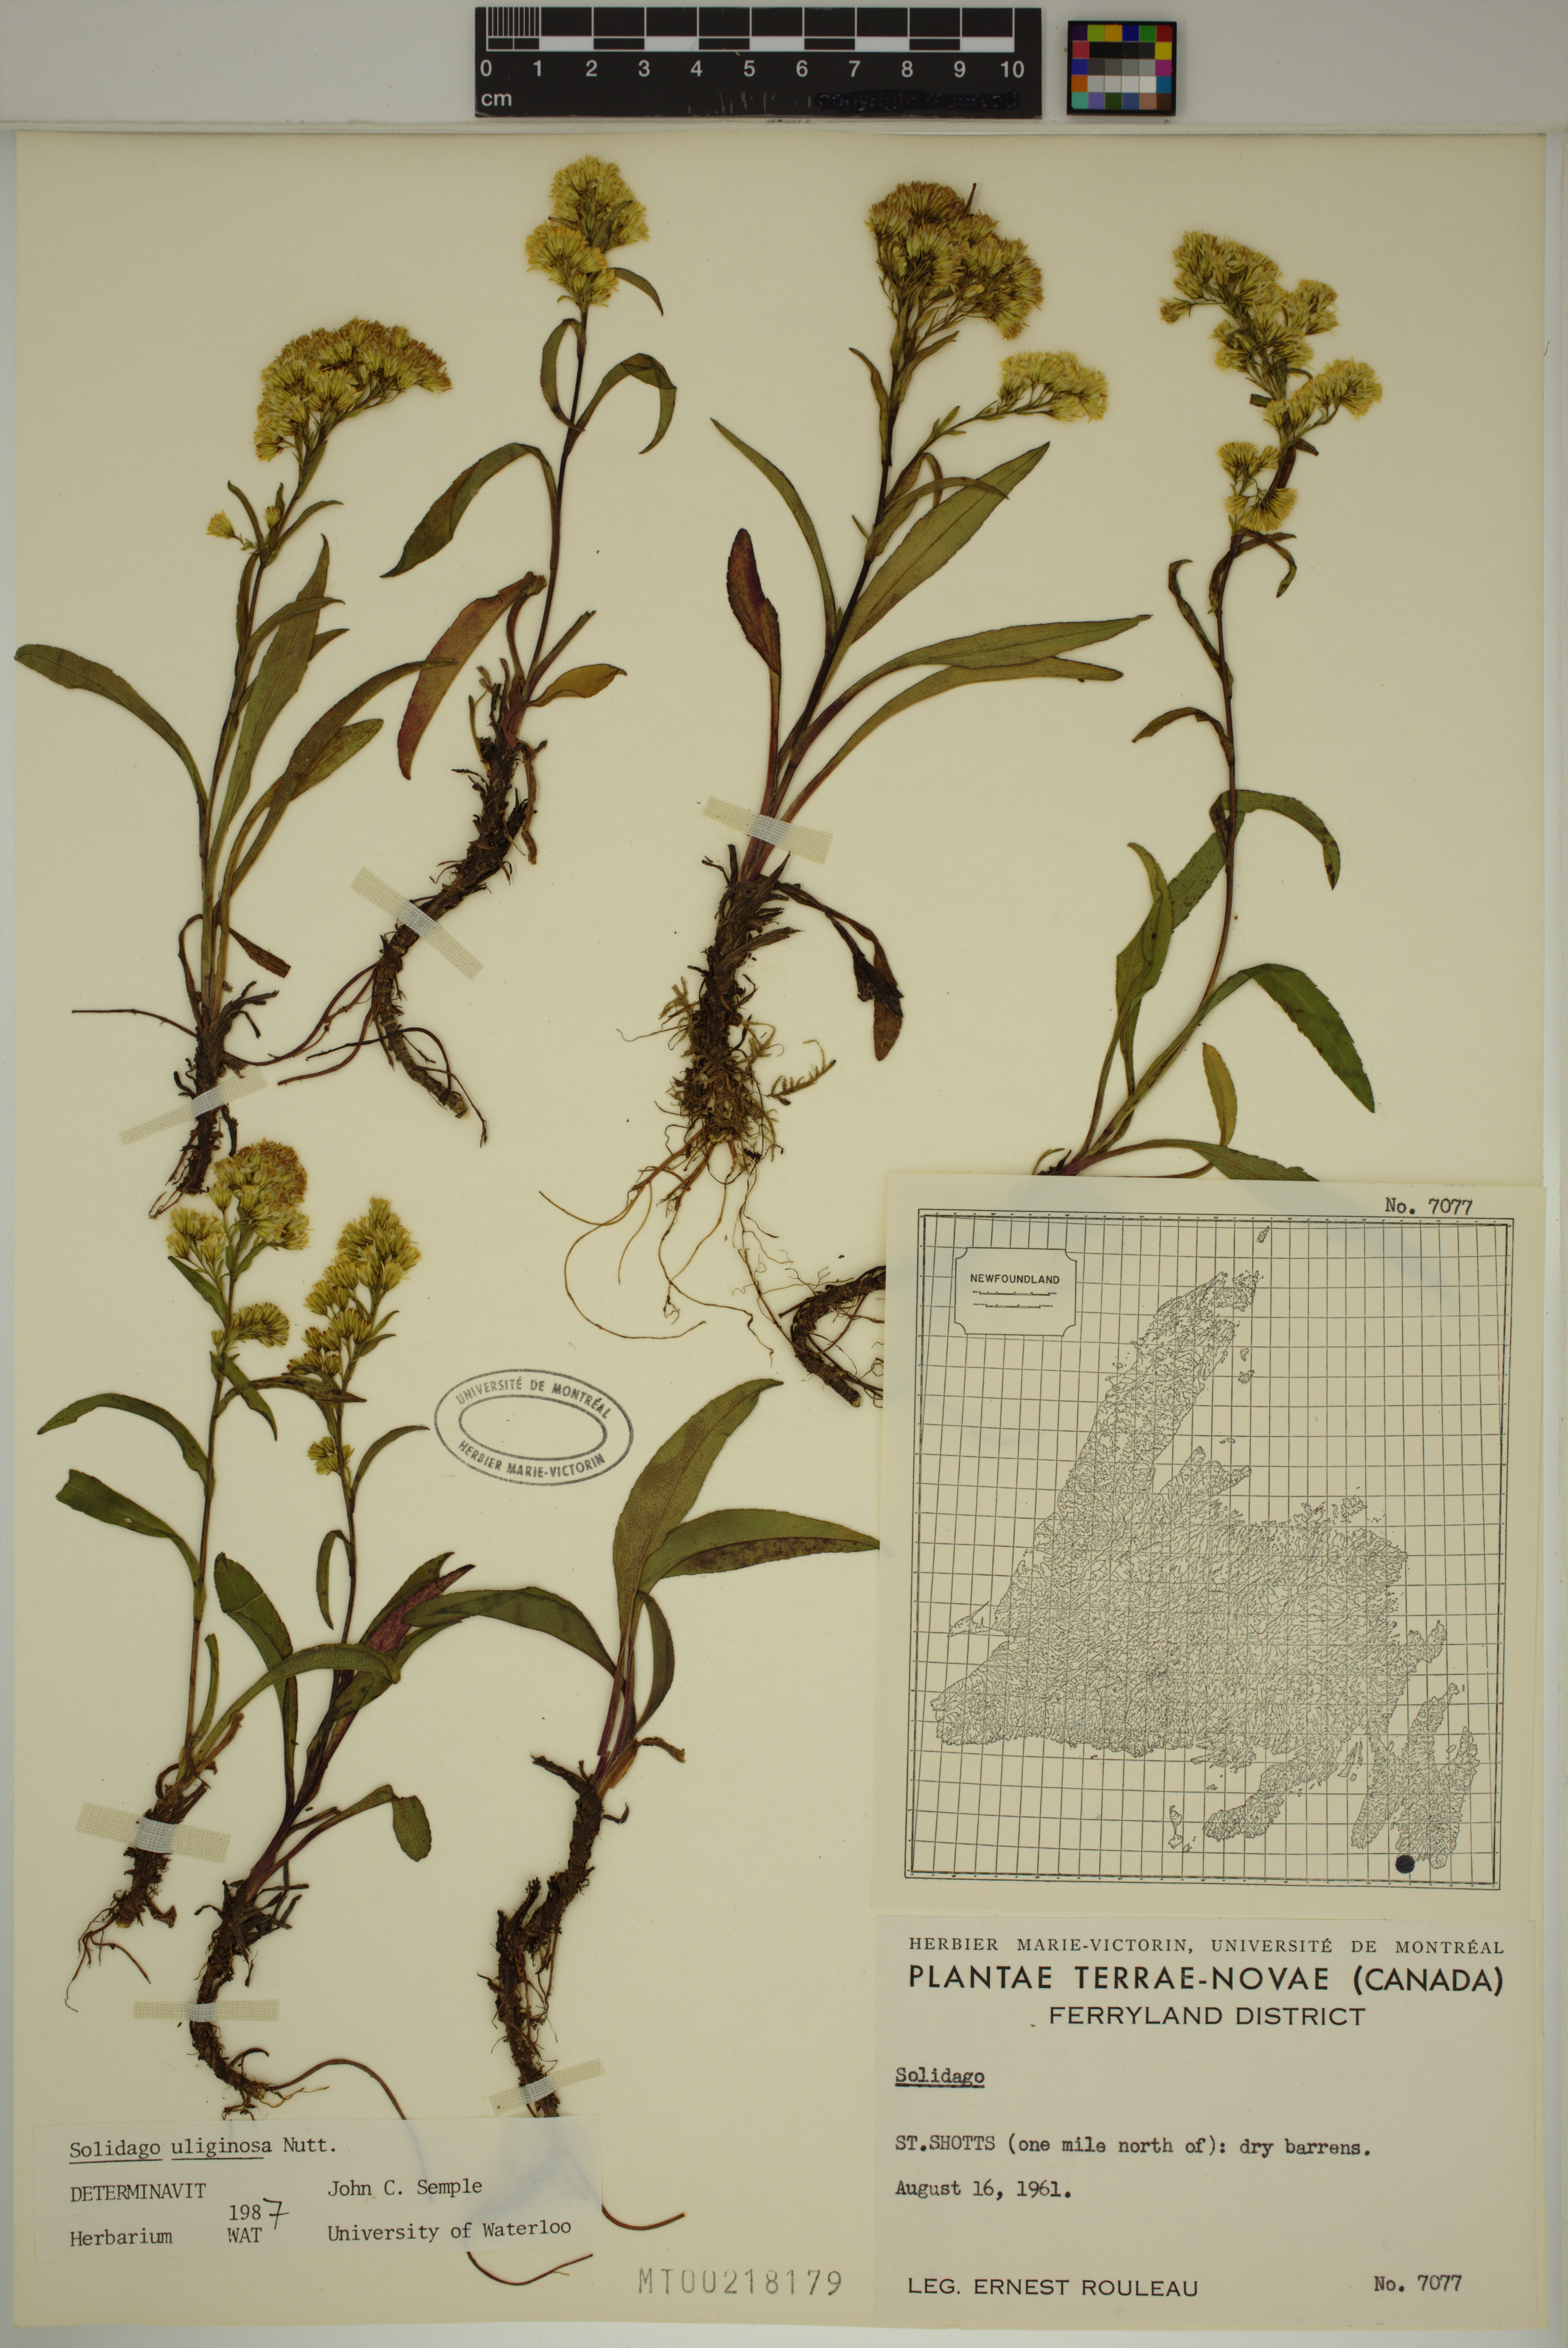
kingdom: Plantae
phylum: Tracheophyta
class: Magnoliopsida
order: Asterales
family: Asteraceae
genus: Solidago
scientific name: Solidago uliginosa
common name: Bog goldenrod
